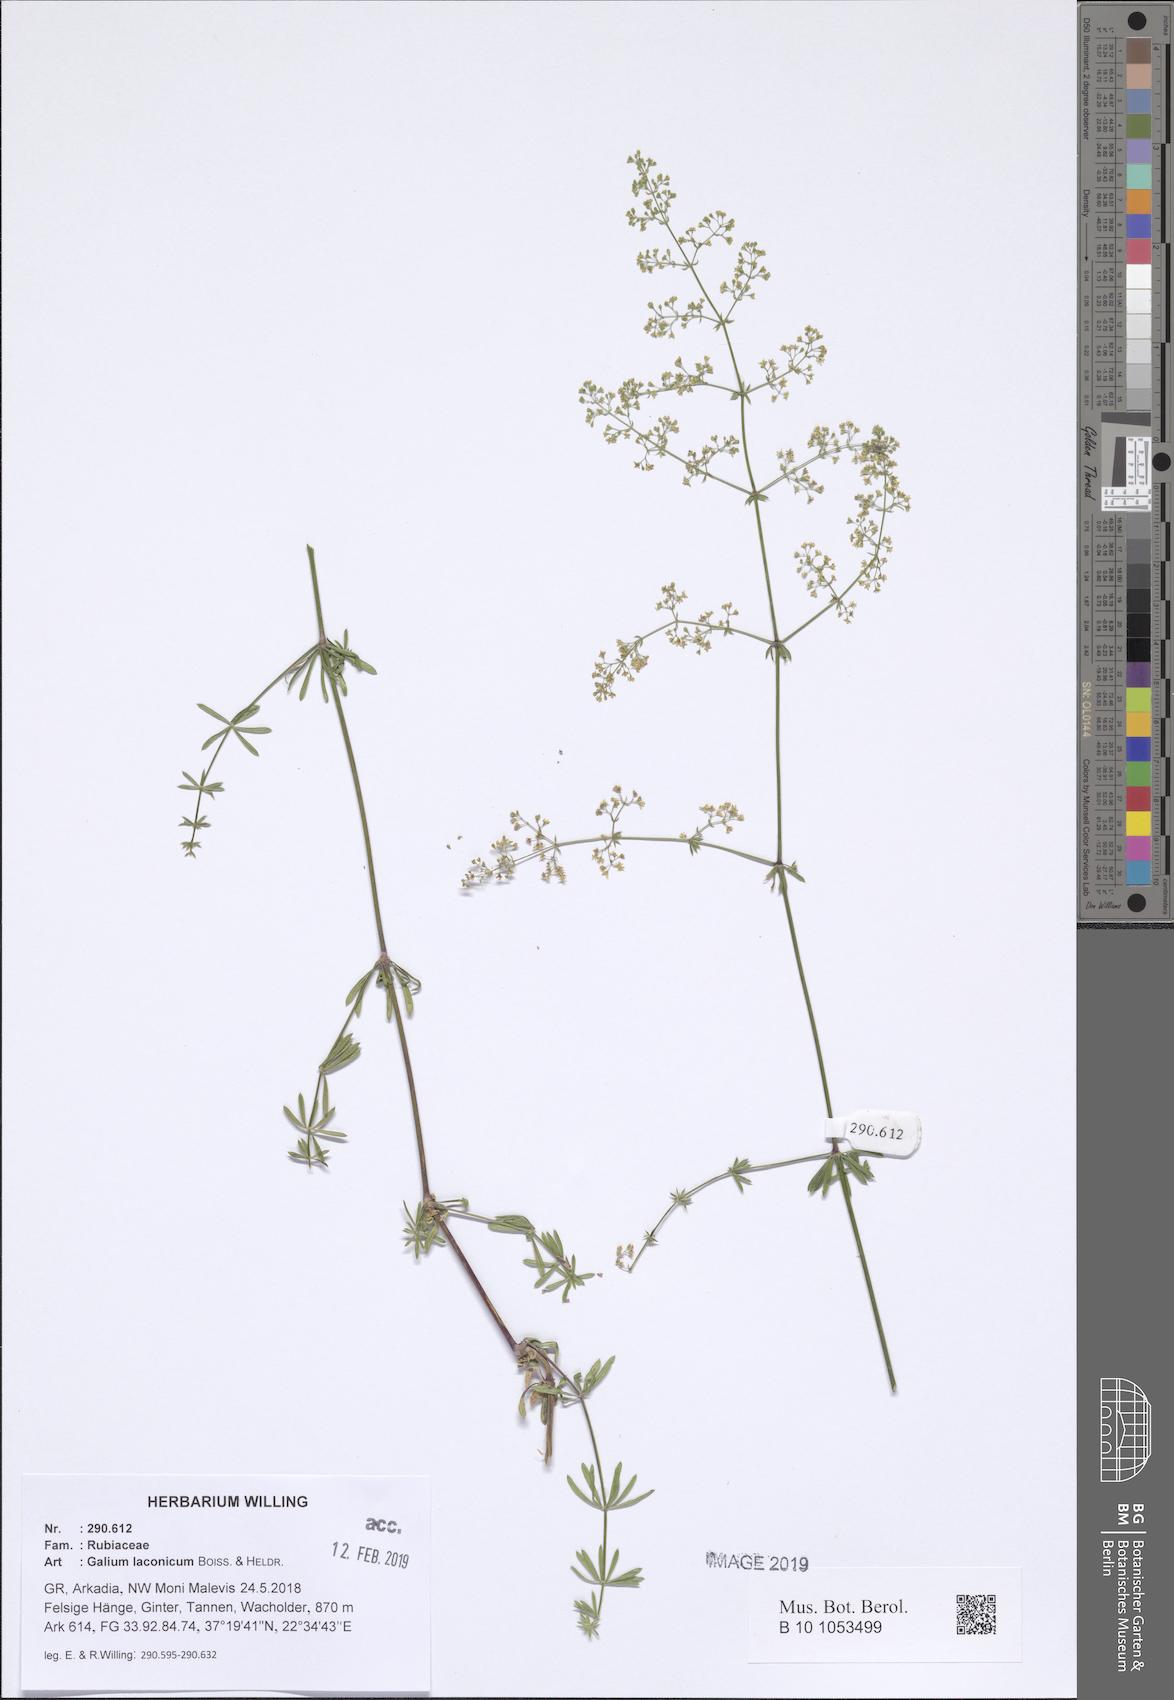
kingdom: Plantae
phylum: Tracheophyta
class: Magnoliopsida
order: Gentianales
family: Rubiaceae
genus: Galium
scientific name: Galium laconicum
